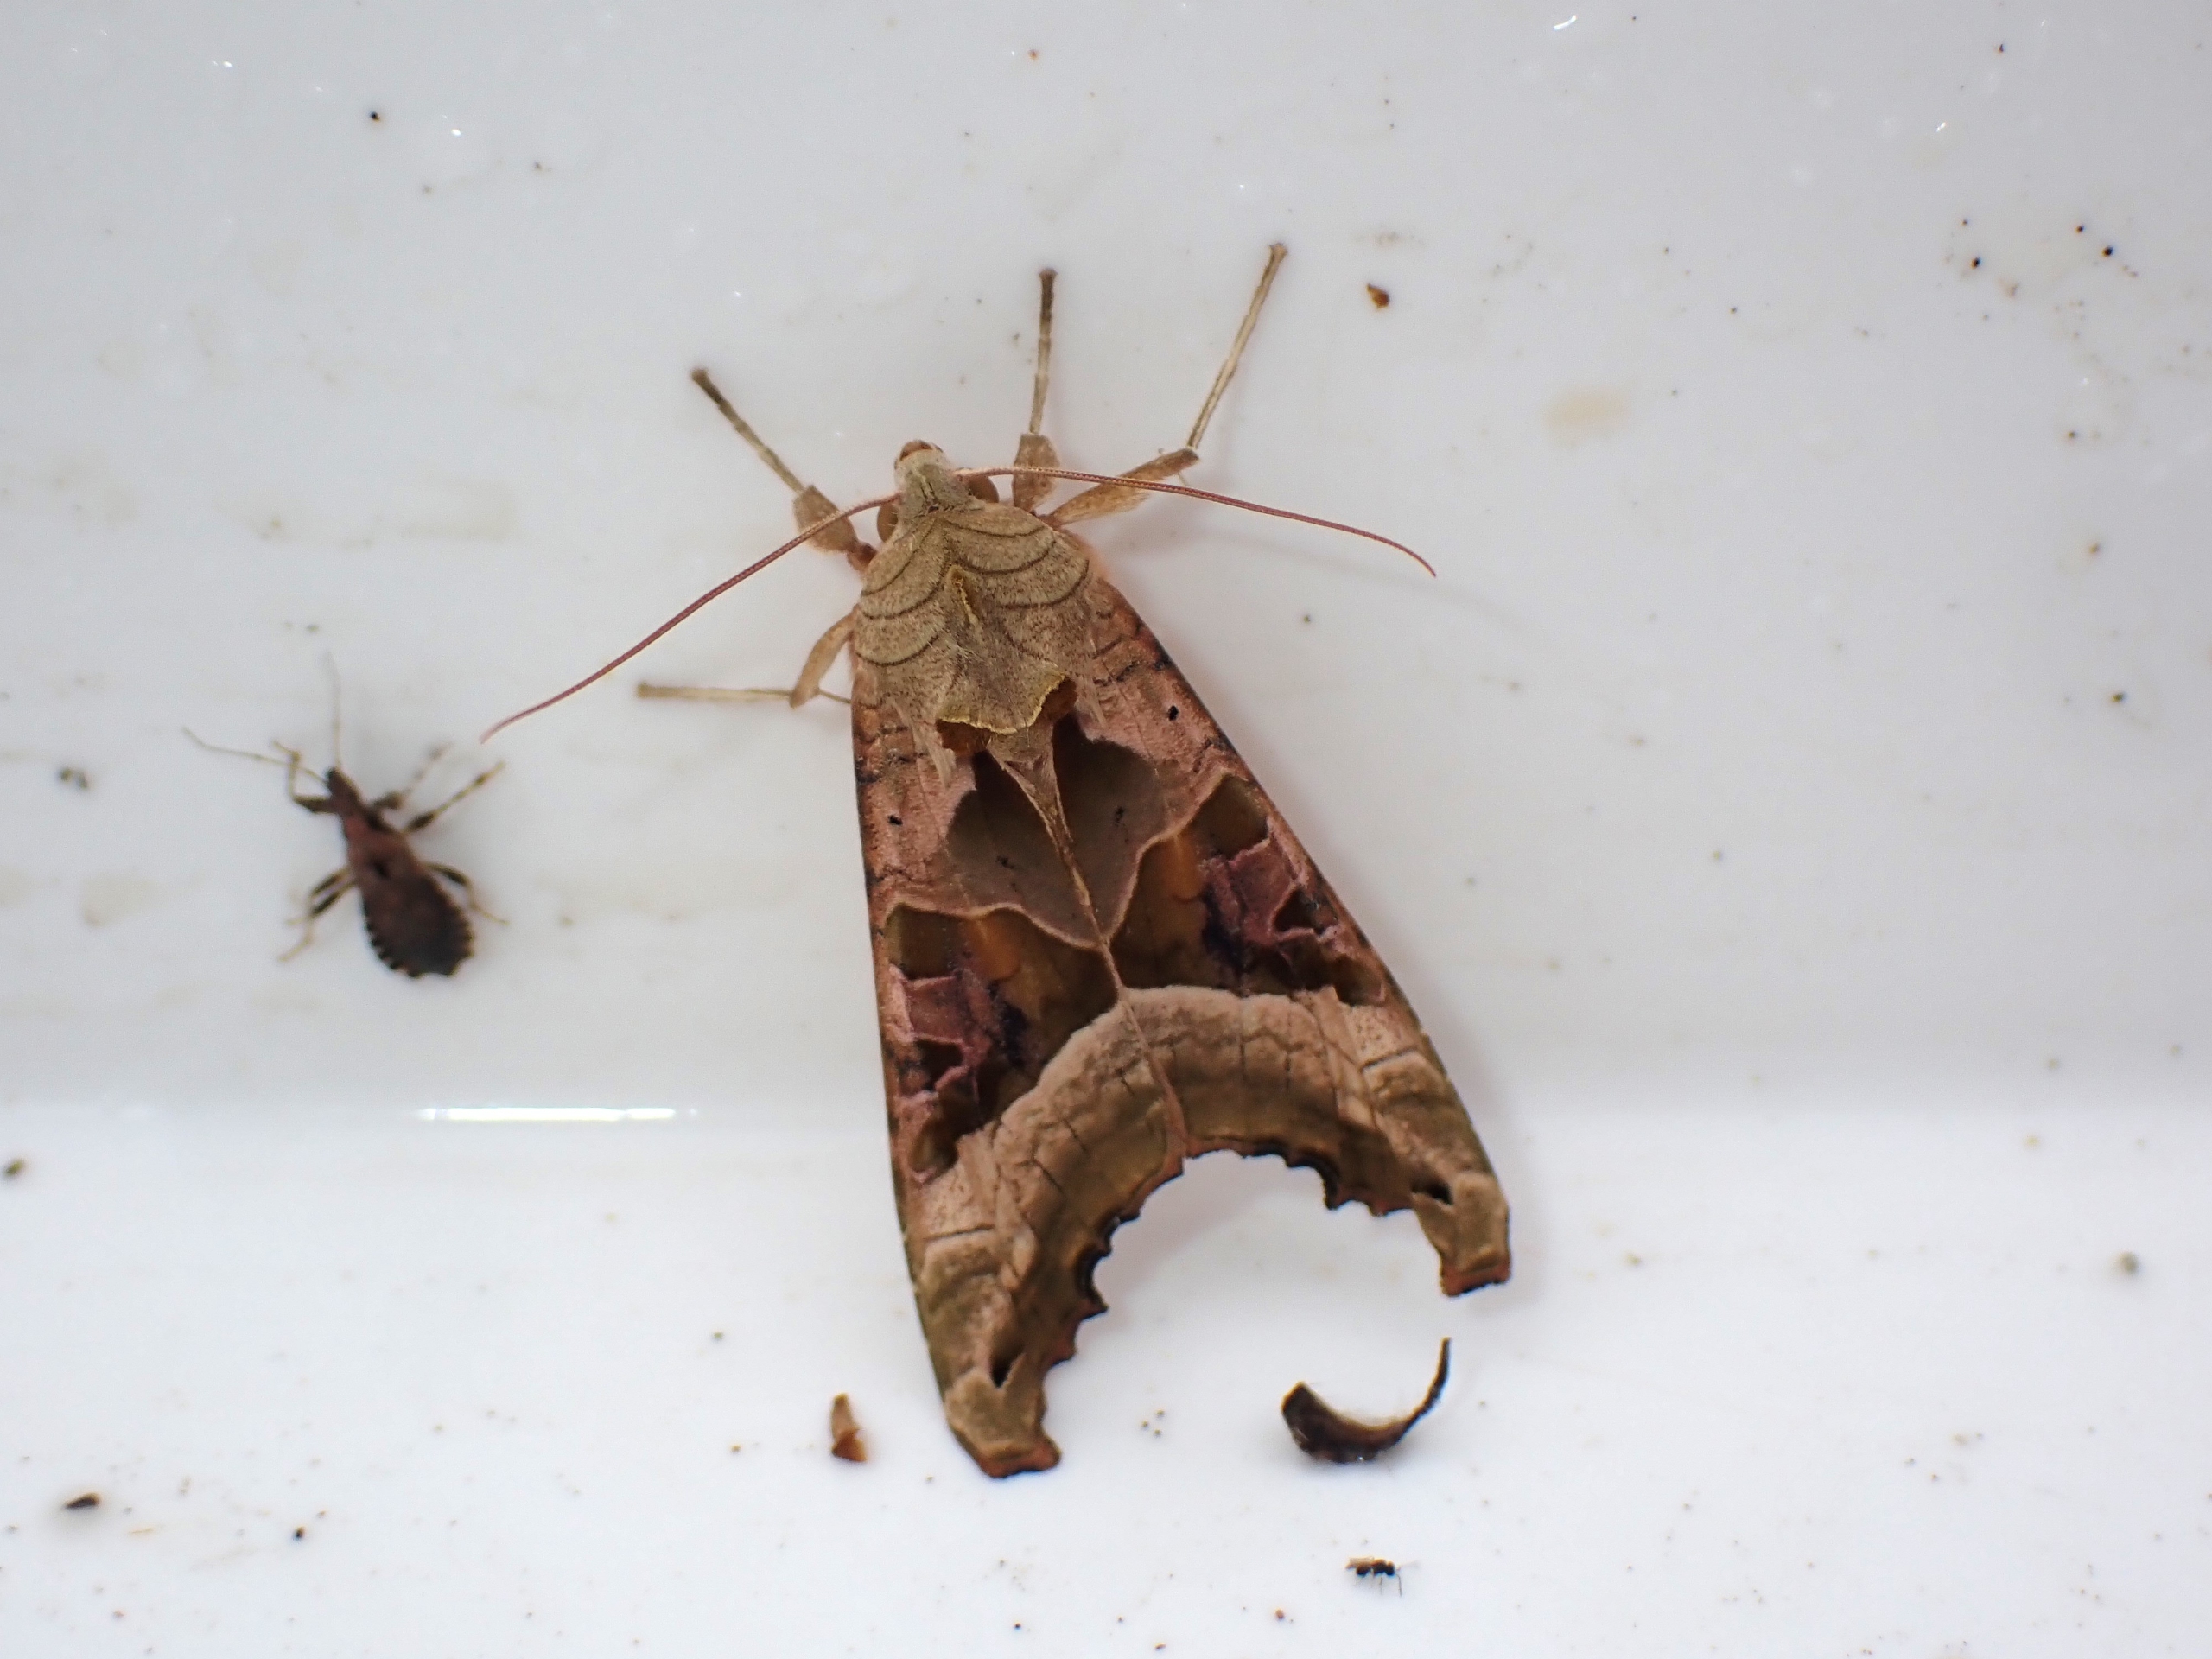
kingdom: Animalia
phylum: Arthropoda
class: Insecta
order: Lepidoptera
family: Noctuidae
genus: Phlogophora
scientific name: Phlogophora meticulosa
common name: Agatugle
